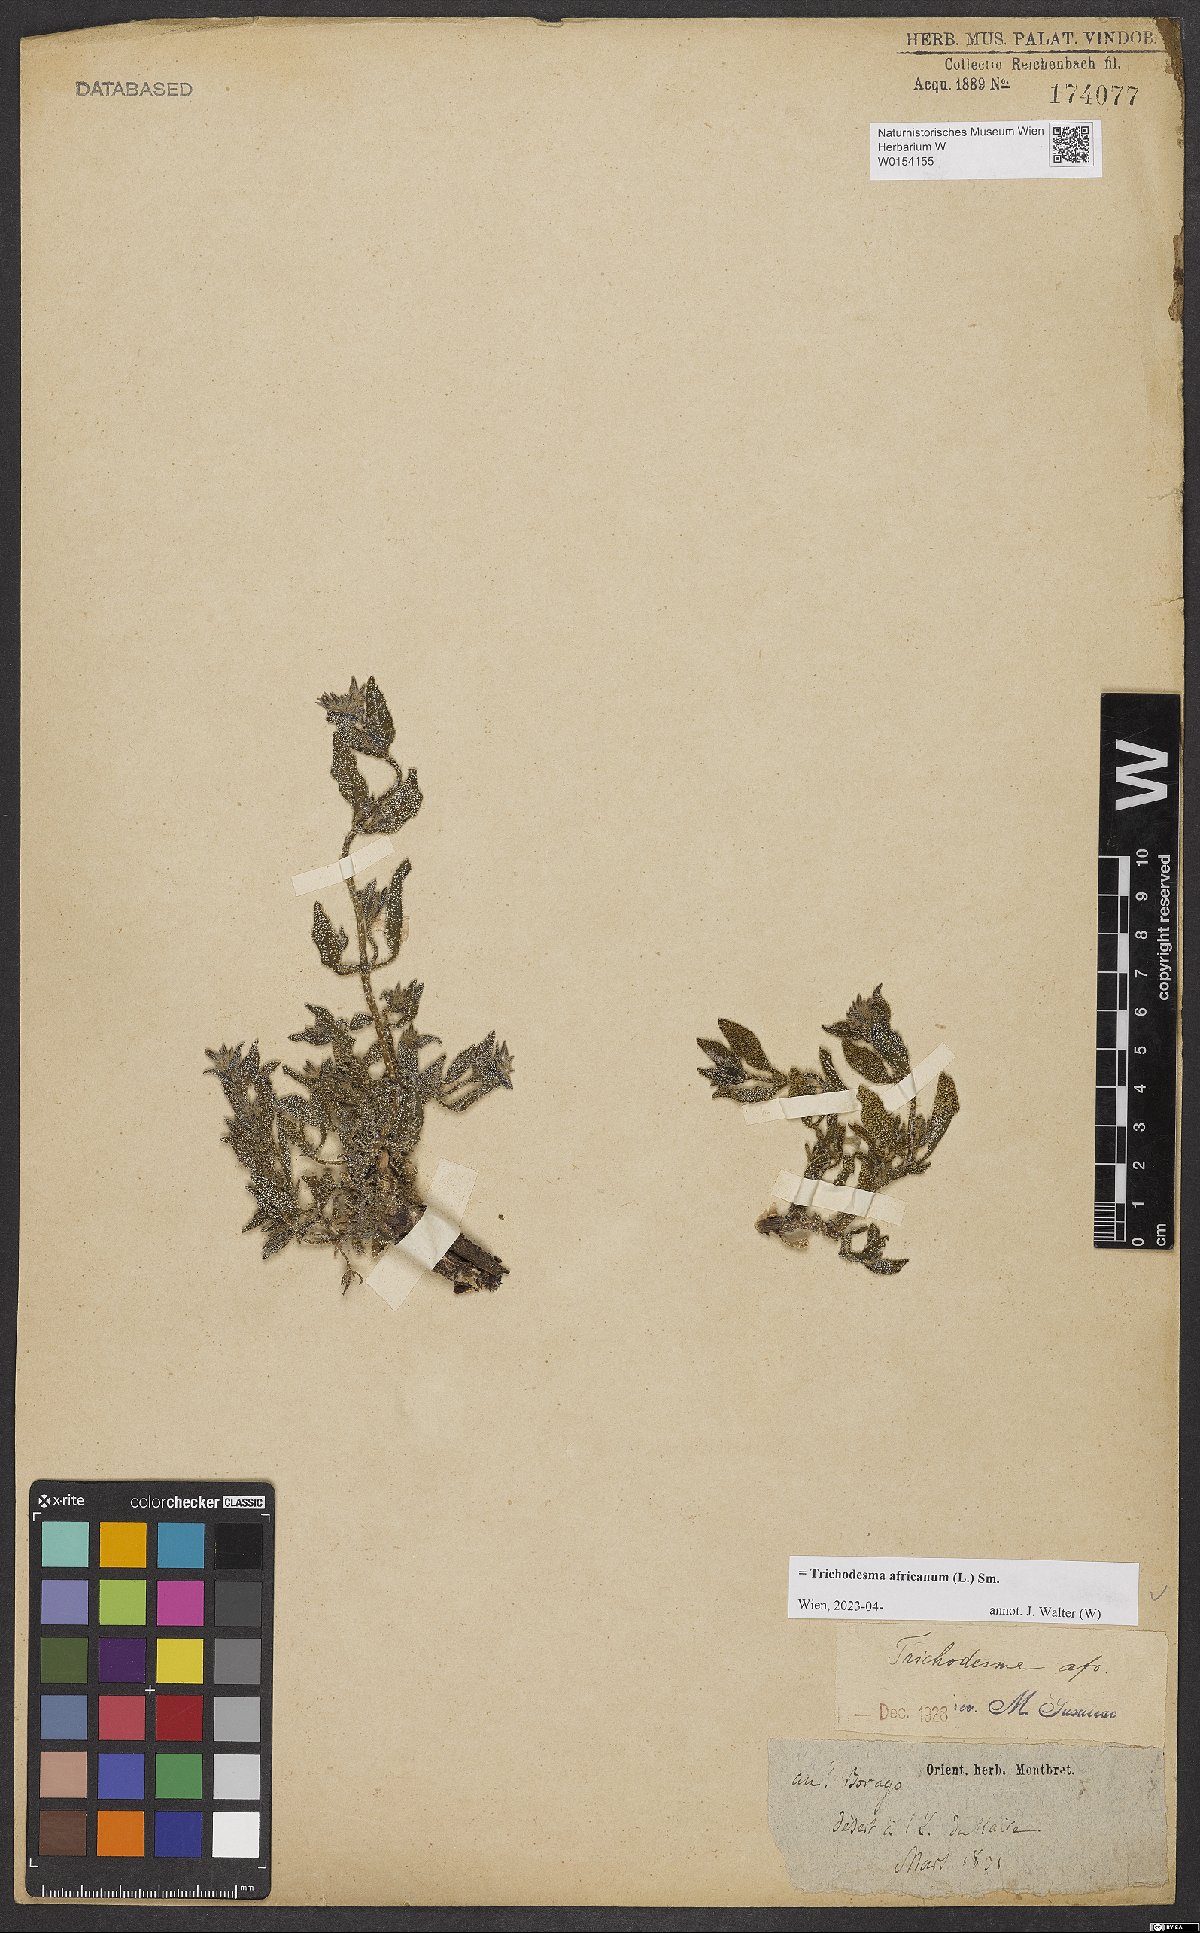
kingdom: Plantae
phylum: Tracheophyta
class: Magnoliopsida
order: Boraginales
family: Boraginaceae
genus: Trichodesma
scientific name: Trichodesma africanum
